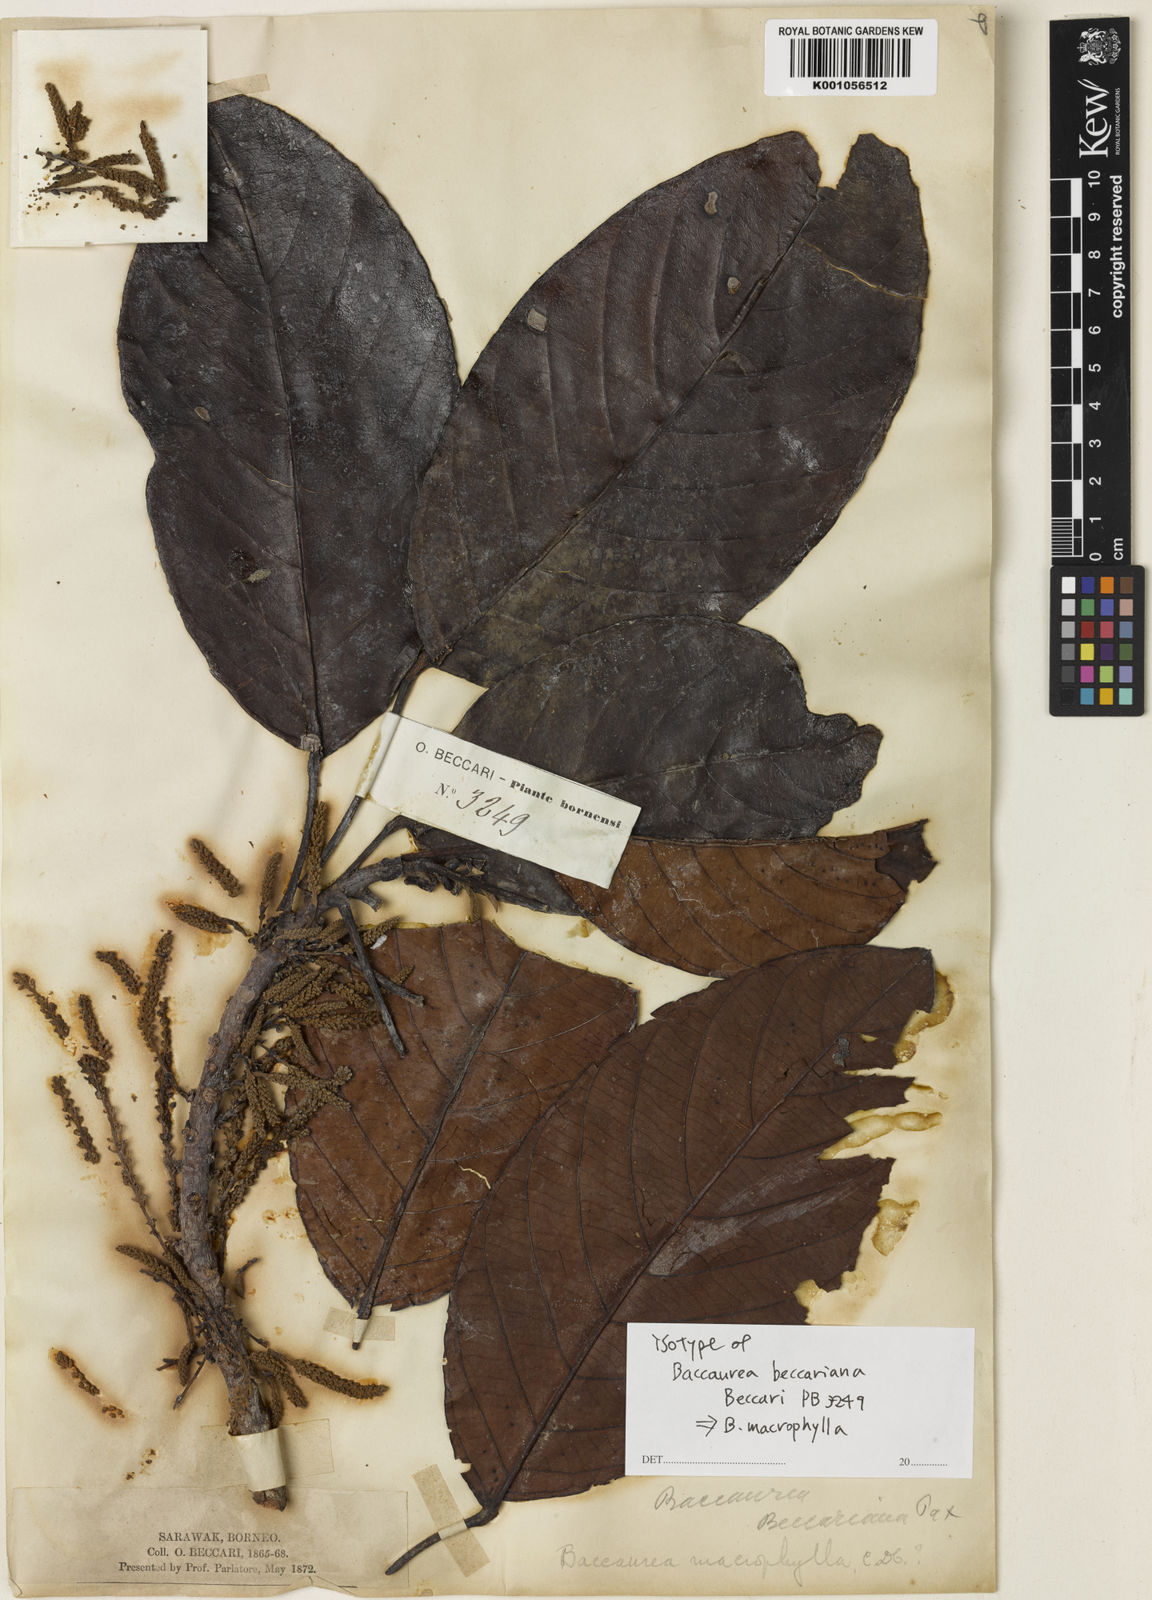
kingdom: Plantae
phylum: Tracheophyta
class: Magnoliopsida
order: Malpighiales
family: Phyllanthaceae
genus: Baccaurea
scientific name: Baccaurea
